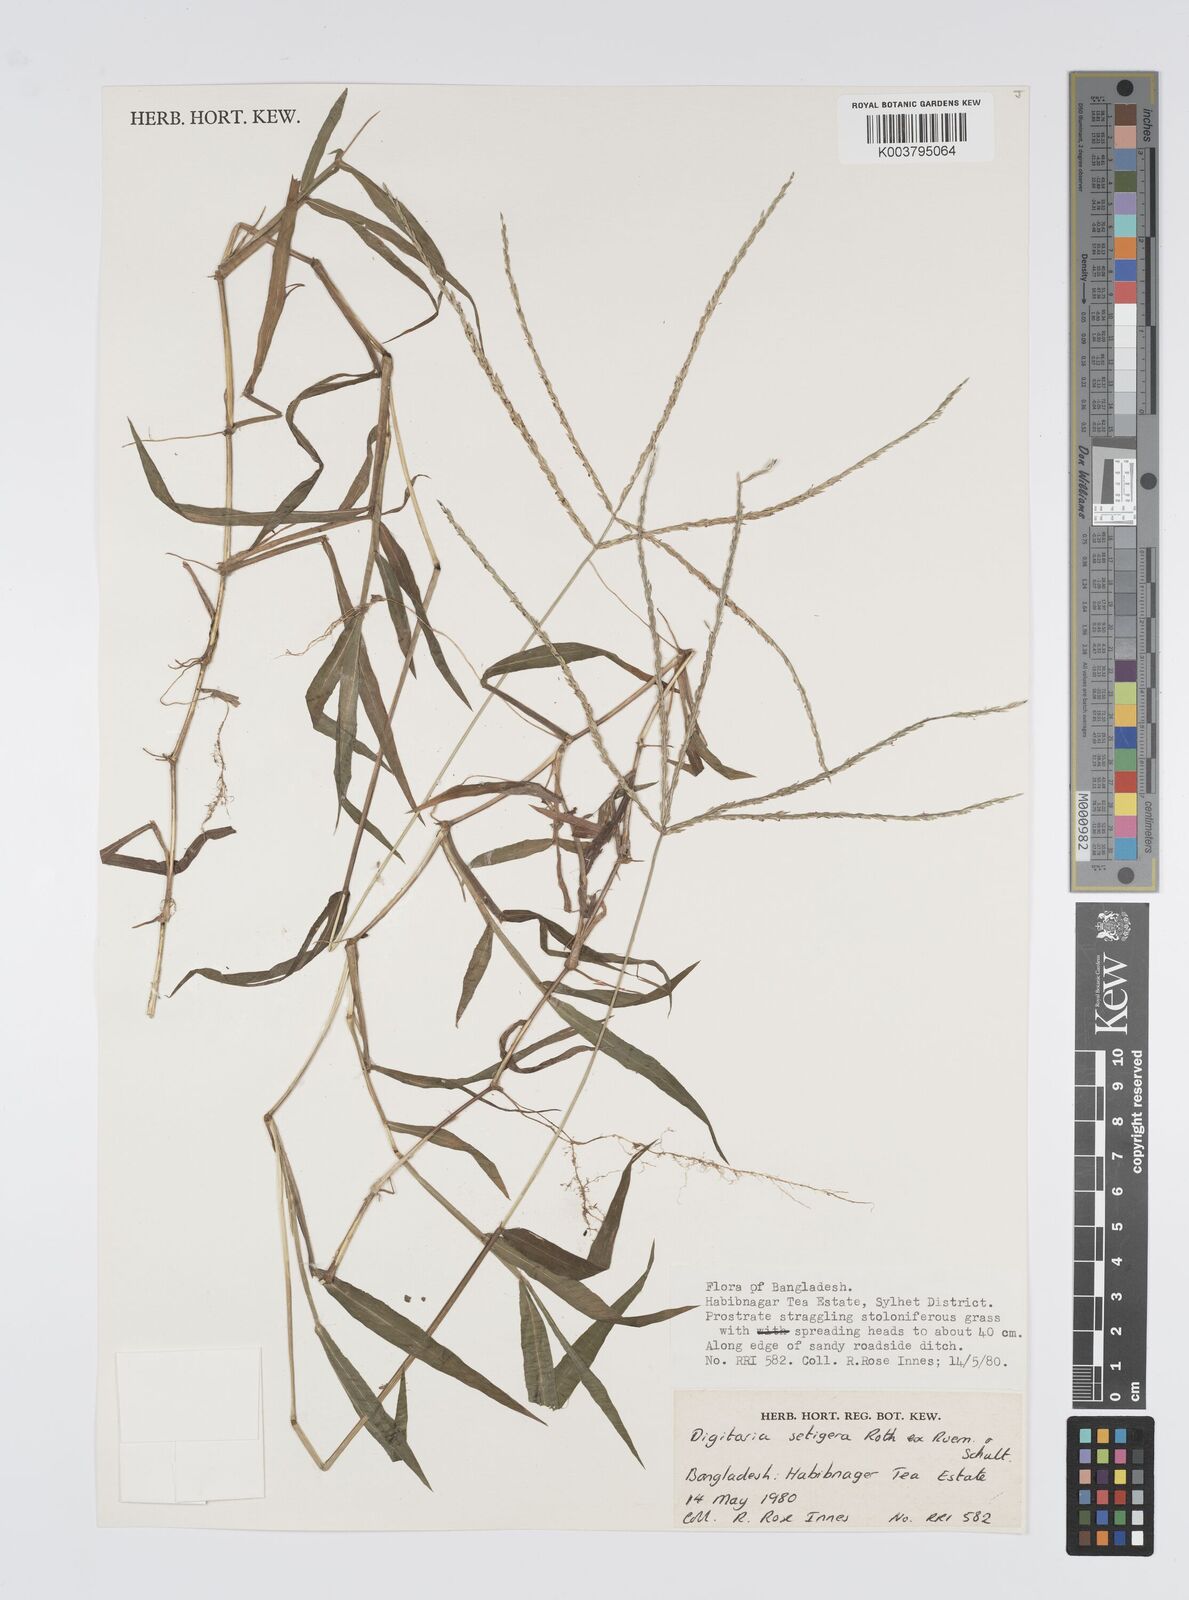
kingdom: Plantae
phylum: Tracheophyta
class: Liliopsida
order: Poales
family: Poaceae
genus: Digitaria
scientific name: Digitaria setigera
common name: East indian crabgrass
